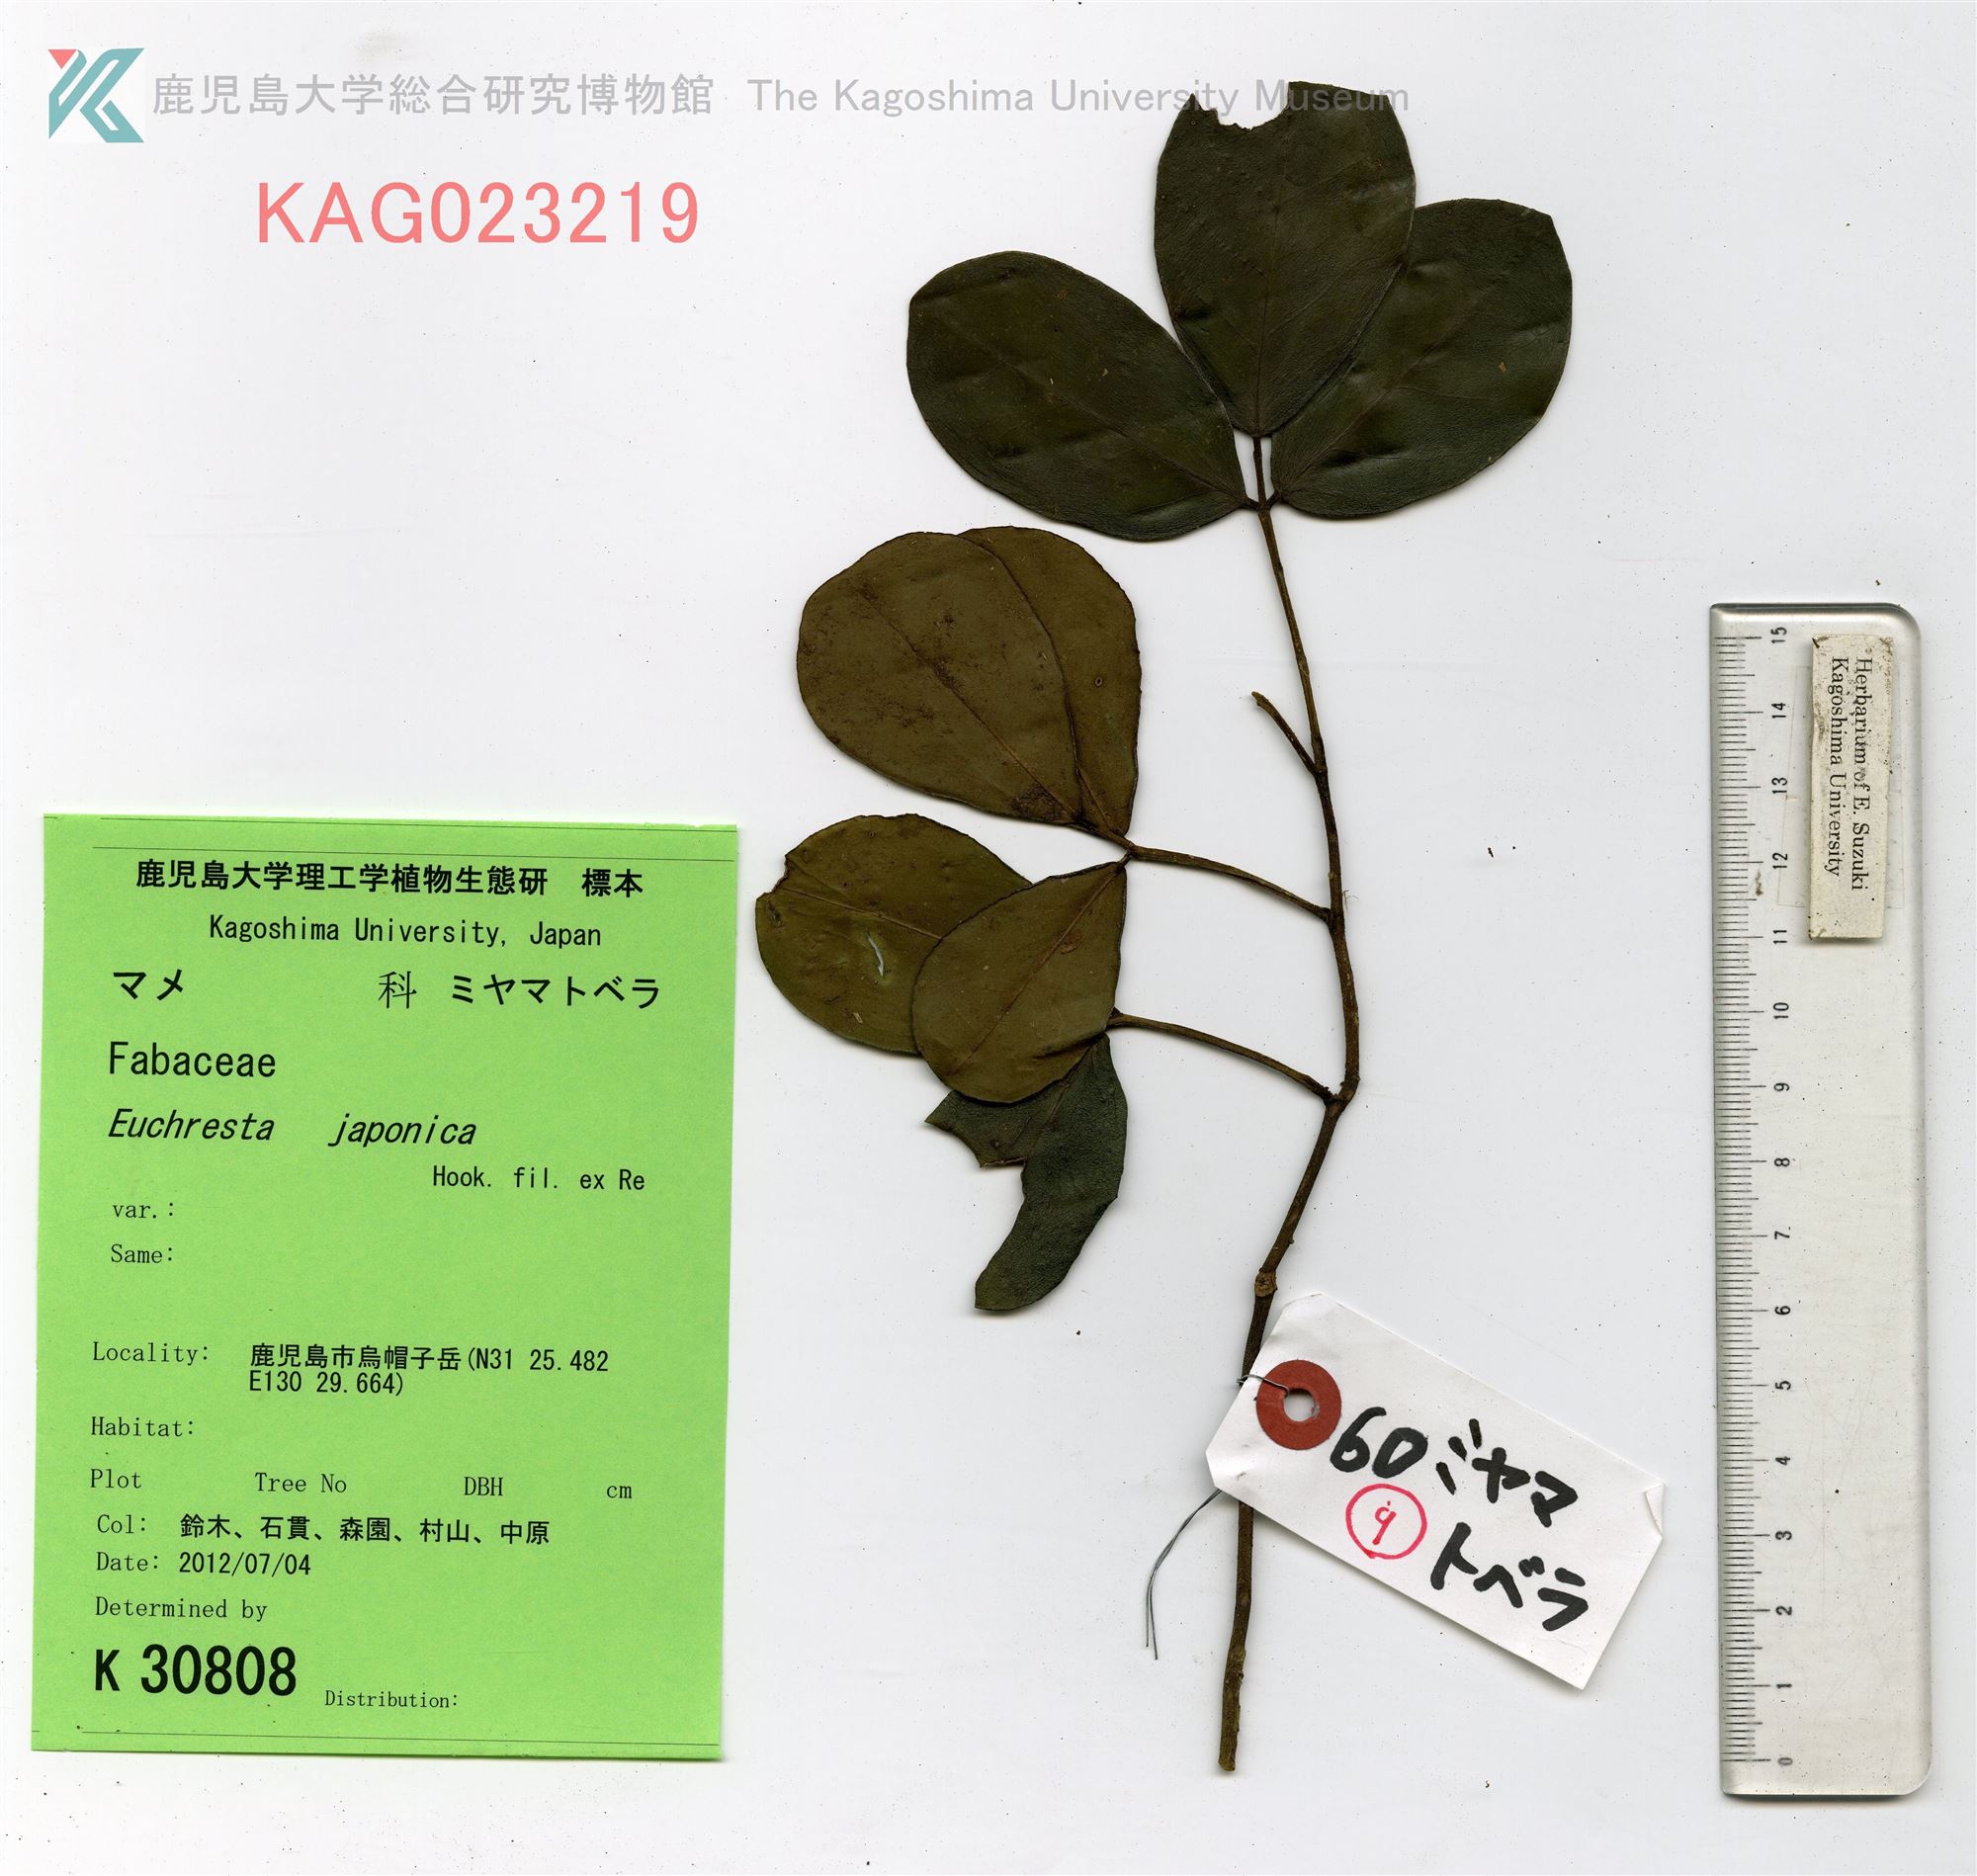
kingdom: Plantae
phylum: Tracheophyta
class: Magnoliopsida
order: Fabales
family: Fabaceae
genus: Euchresta
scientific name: Euchresta japonica
